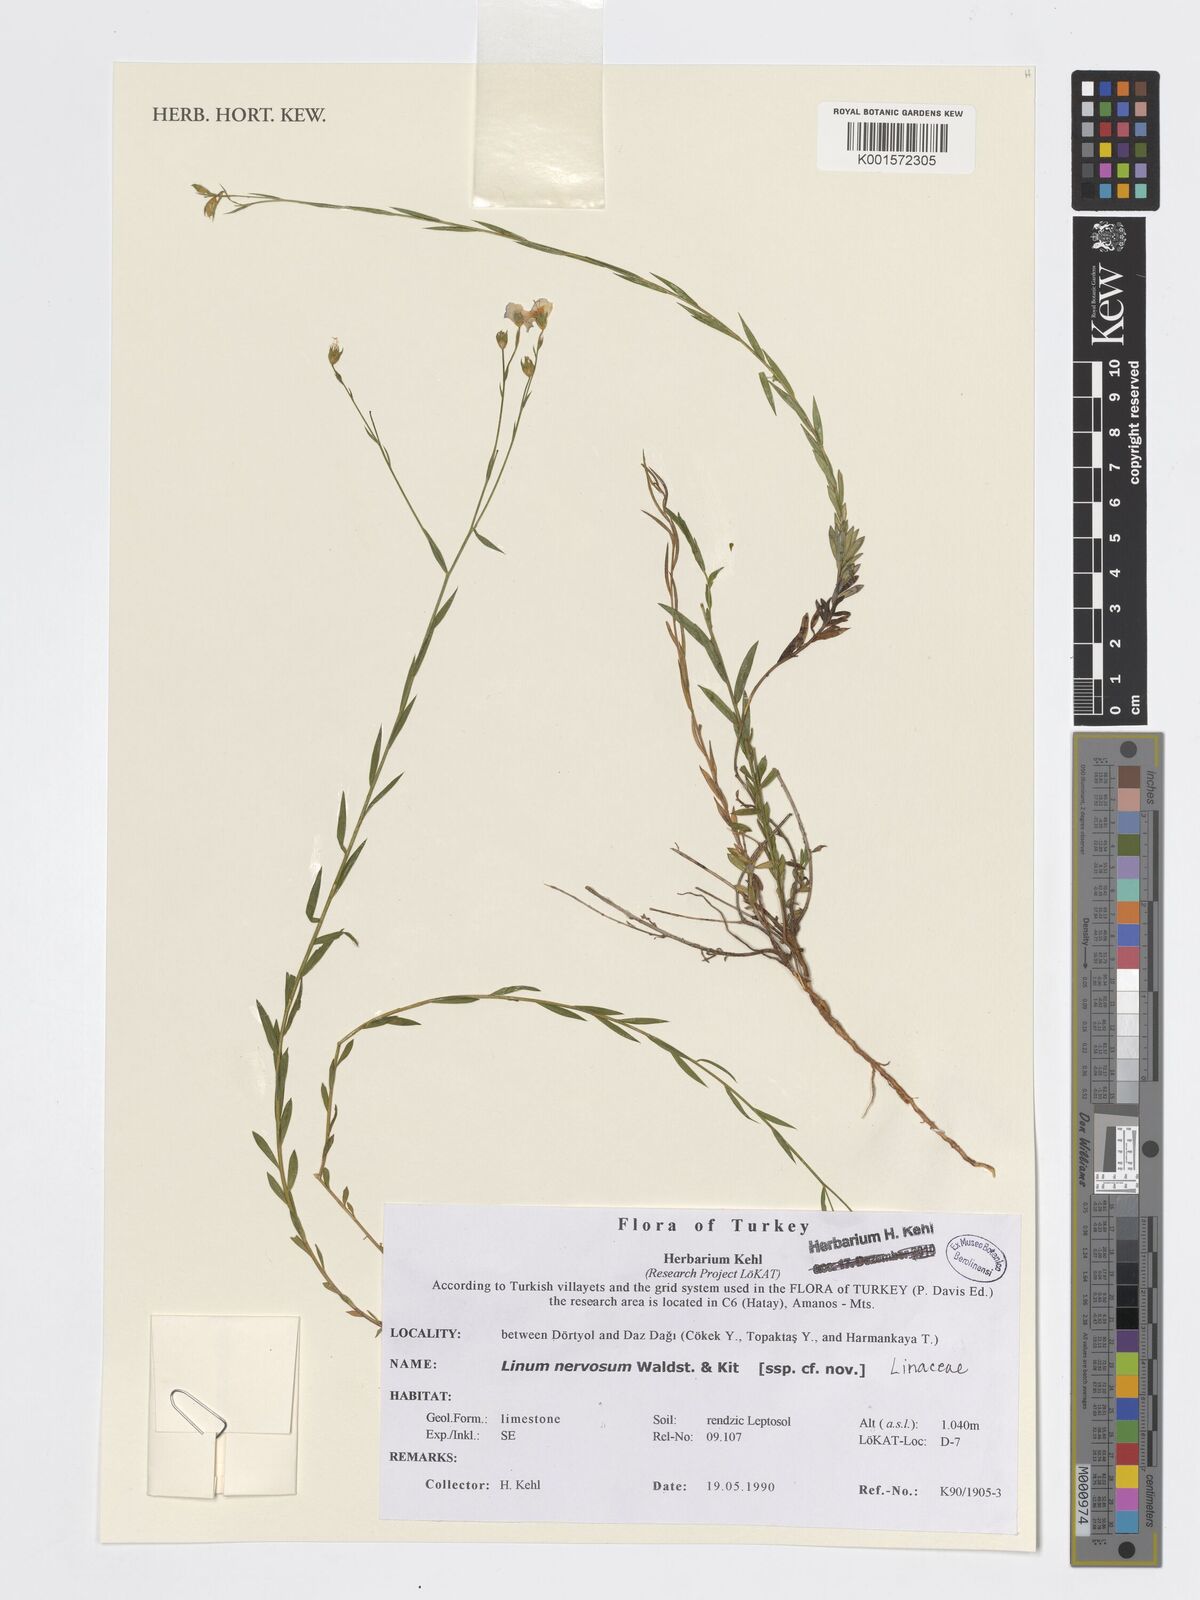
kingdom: Plantae
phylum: Tracheophyta
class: Magnoliopsida
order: Malpighiales
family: Linaceae
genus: Linum
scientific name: Linum nervosum
